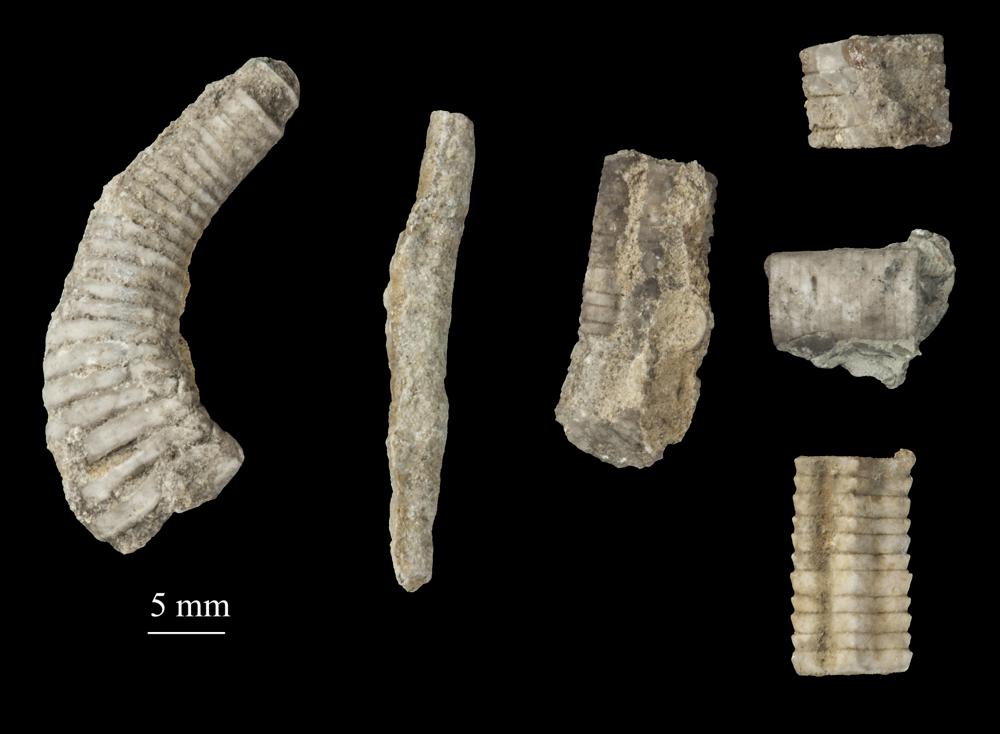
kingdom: Animalia
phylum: Echinodermata
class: Crinoidea
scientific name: Crinoidea
